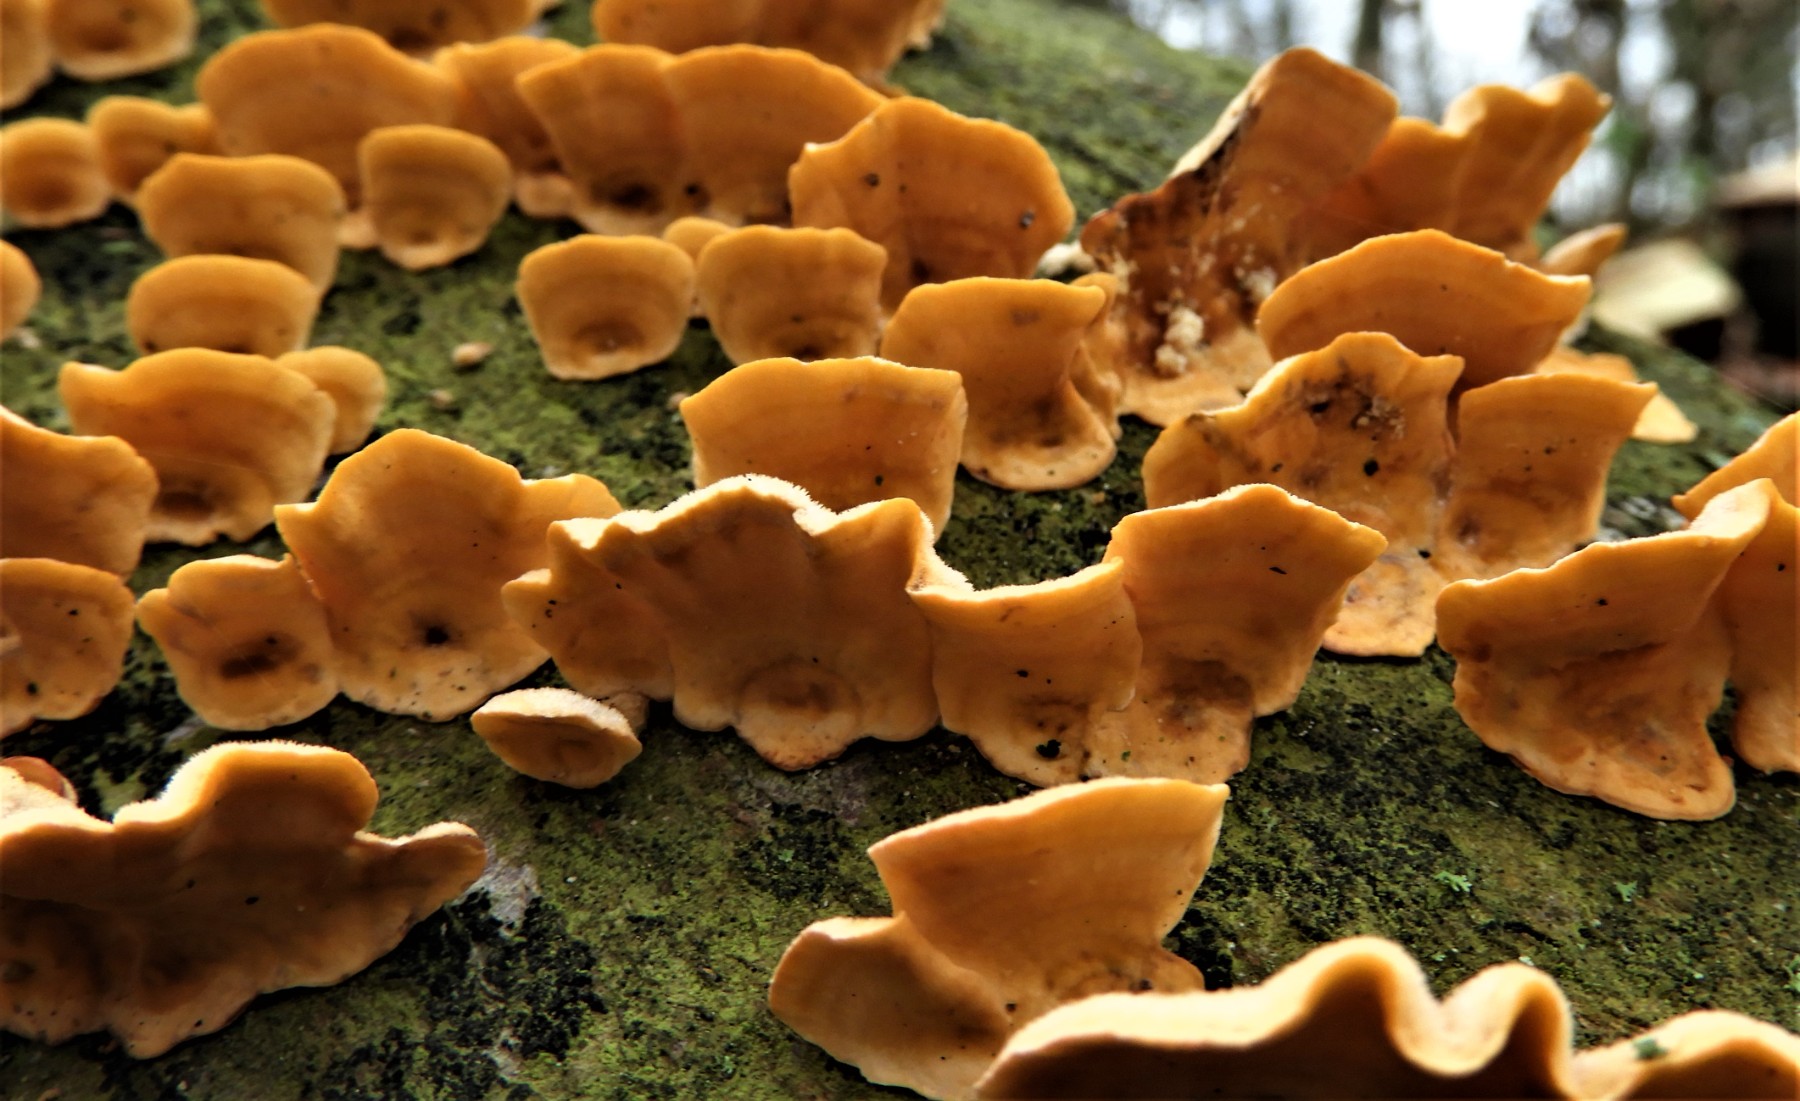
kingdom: Fungi
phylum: Basidiomycota
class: Agaricomycetes
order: Russulales
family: Stereaceae
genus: Stereum
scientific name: Stereum hirsutum
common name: håret lædersvamp
